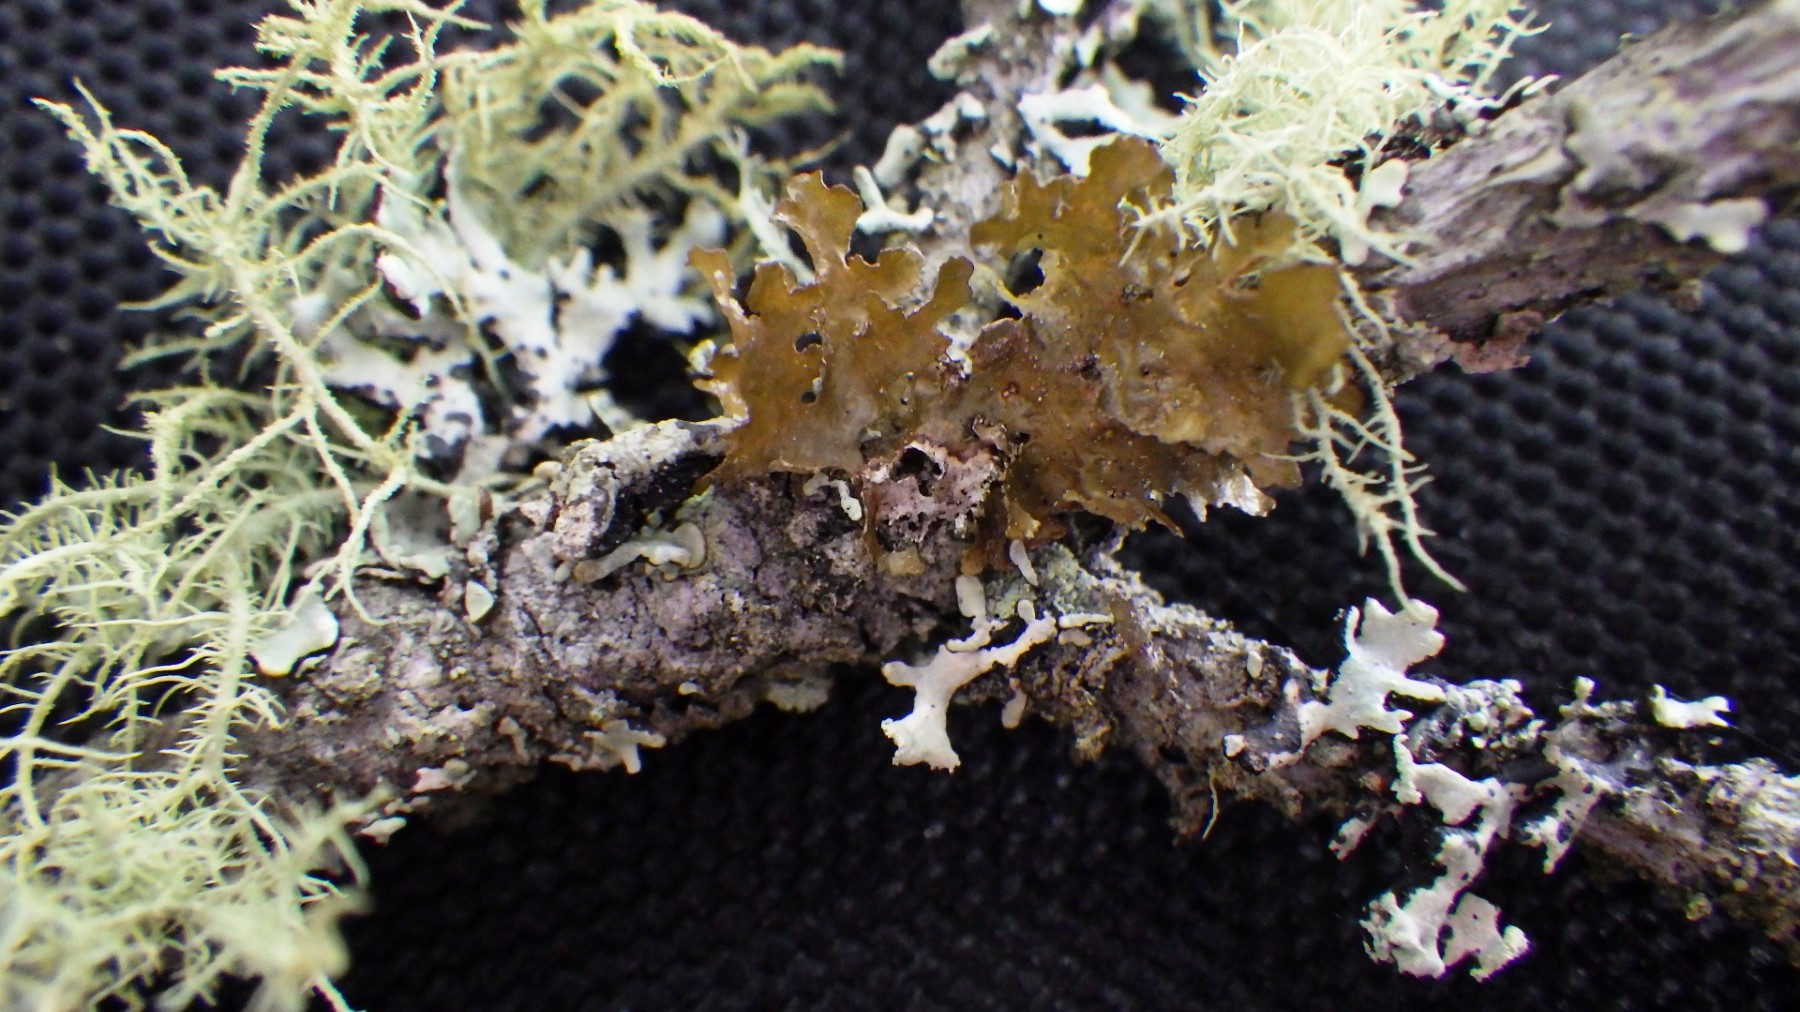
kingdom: Fungi
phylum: Ascomycota
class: Lecanoromycetes
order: Lecanorales
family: Parmeliaceae
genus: Nephromopsis
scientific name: Nephromopsis chlorophylla
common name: olivenbrun kruslav
